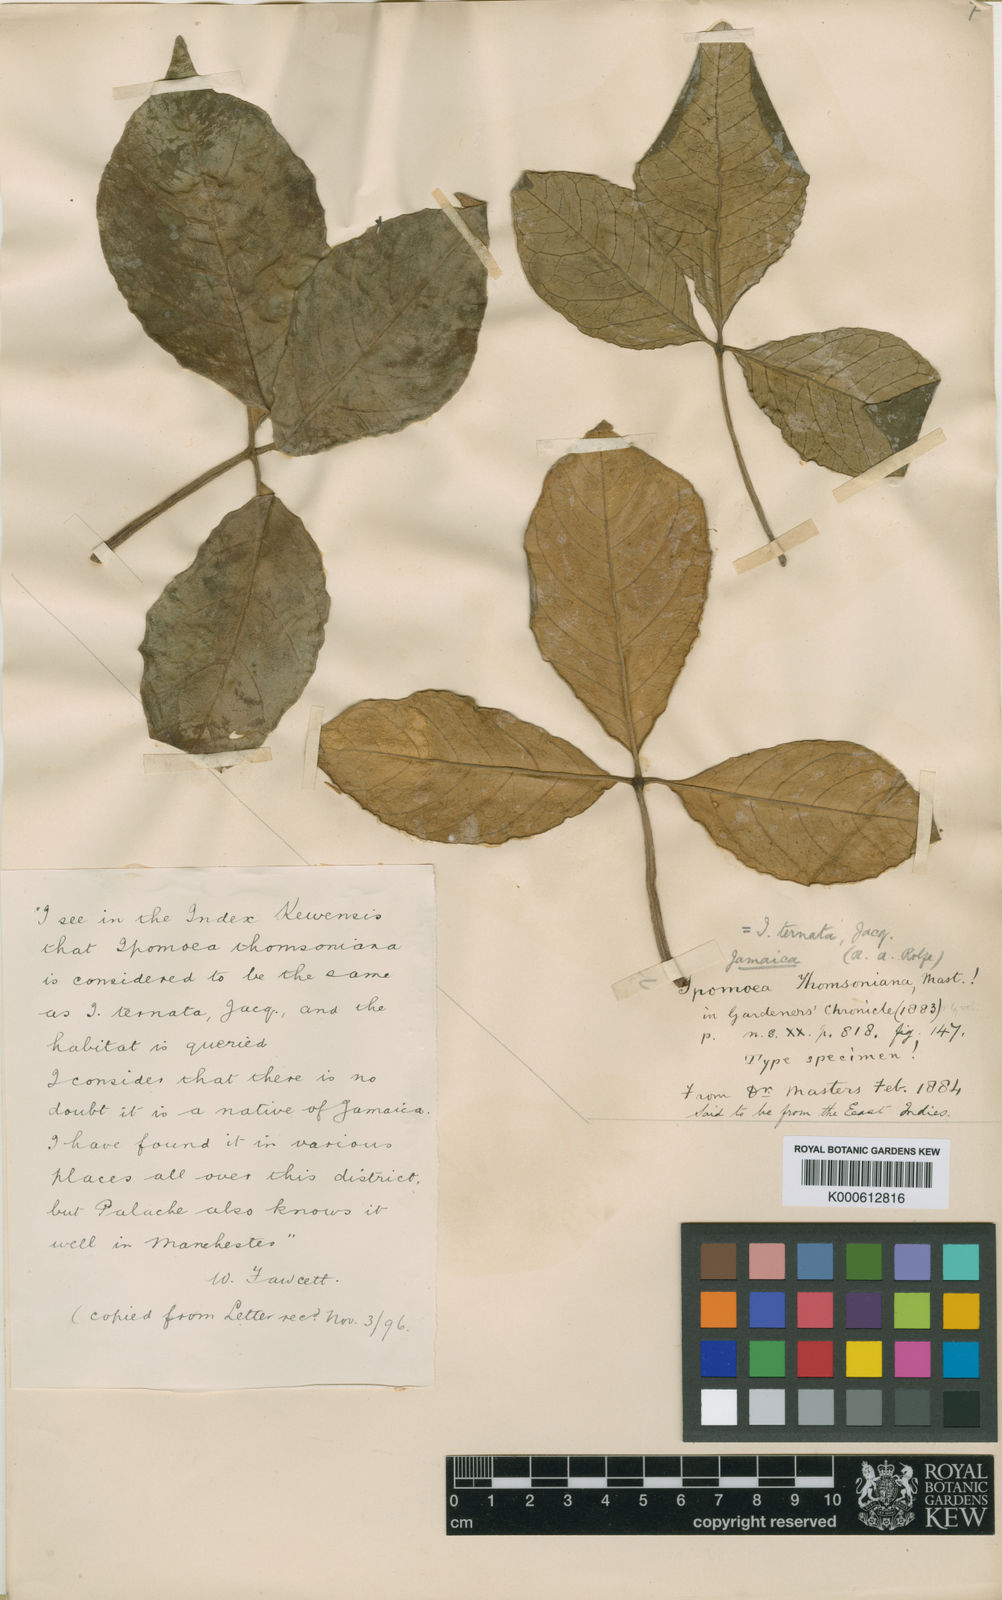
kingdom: Plantae
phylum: Tracheophyta
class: Magnoliopsida
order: Solanales
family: Convolvulaceae
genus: Ipomoea
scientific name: Ipomoea ternata
